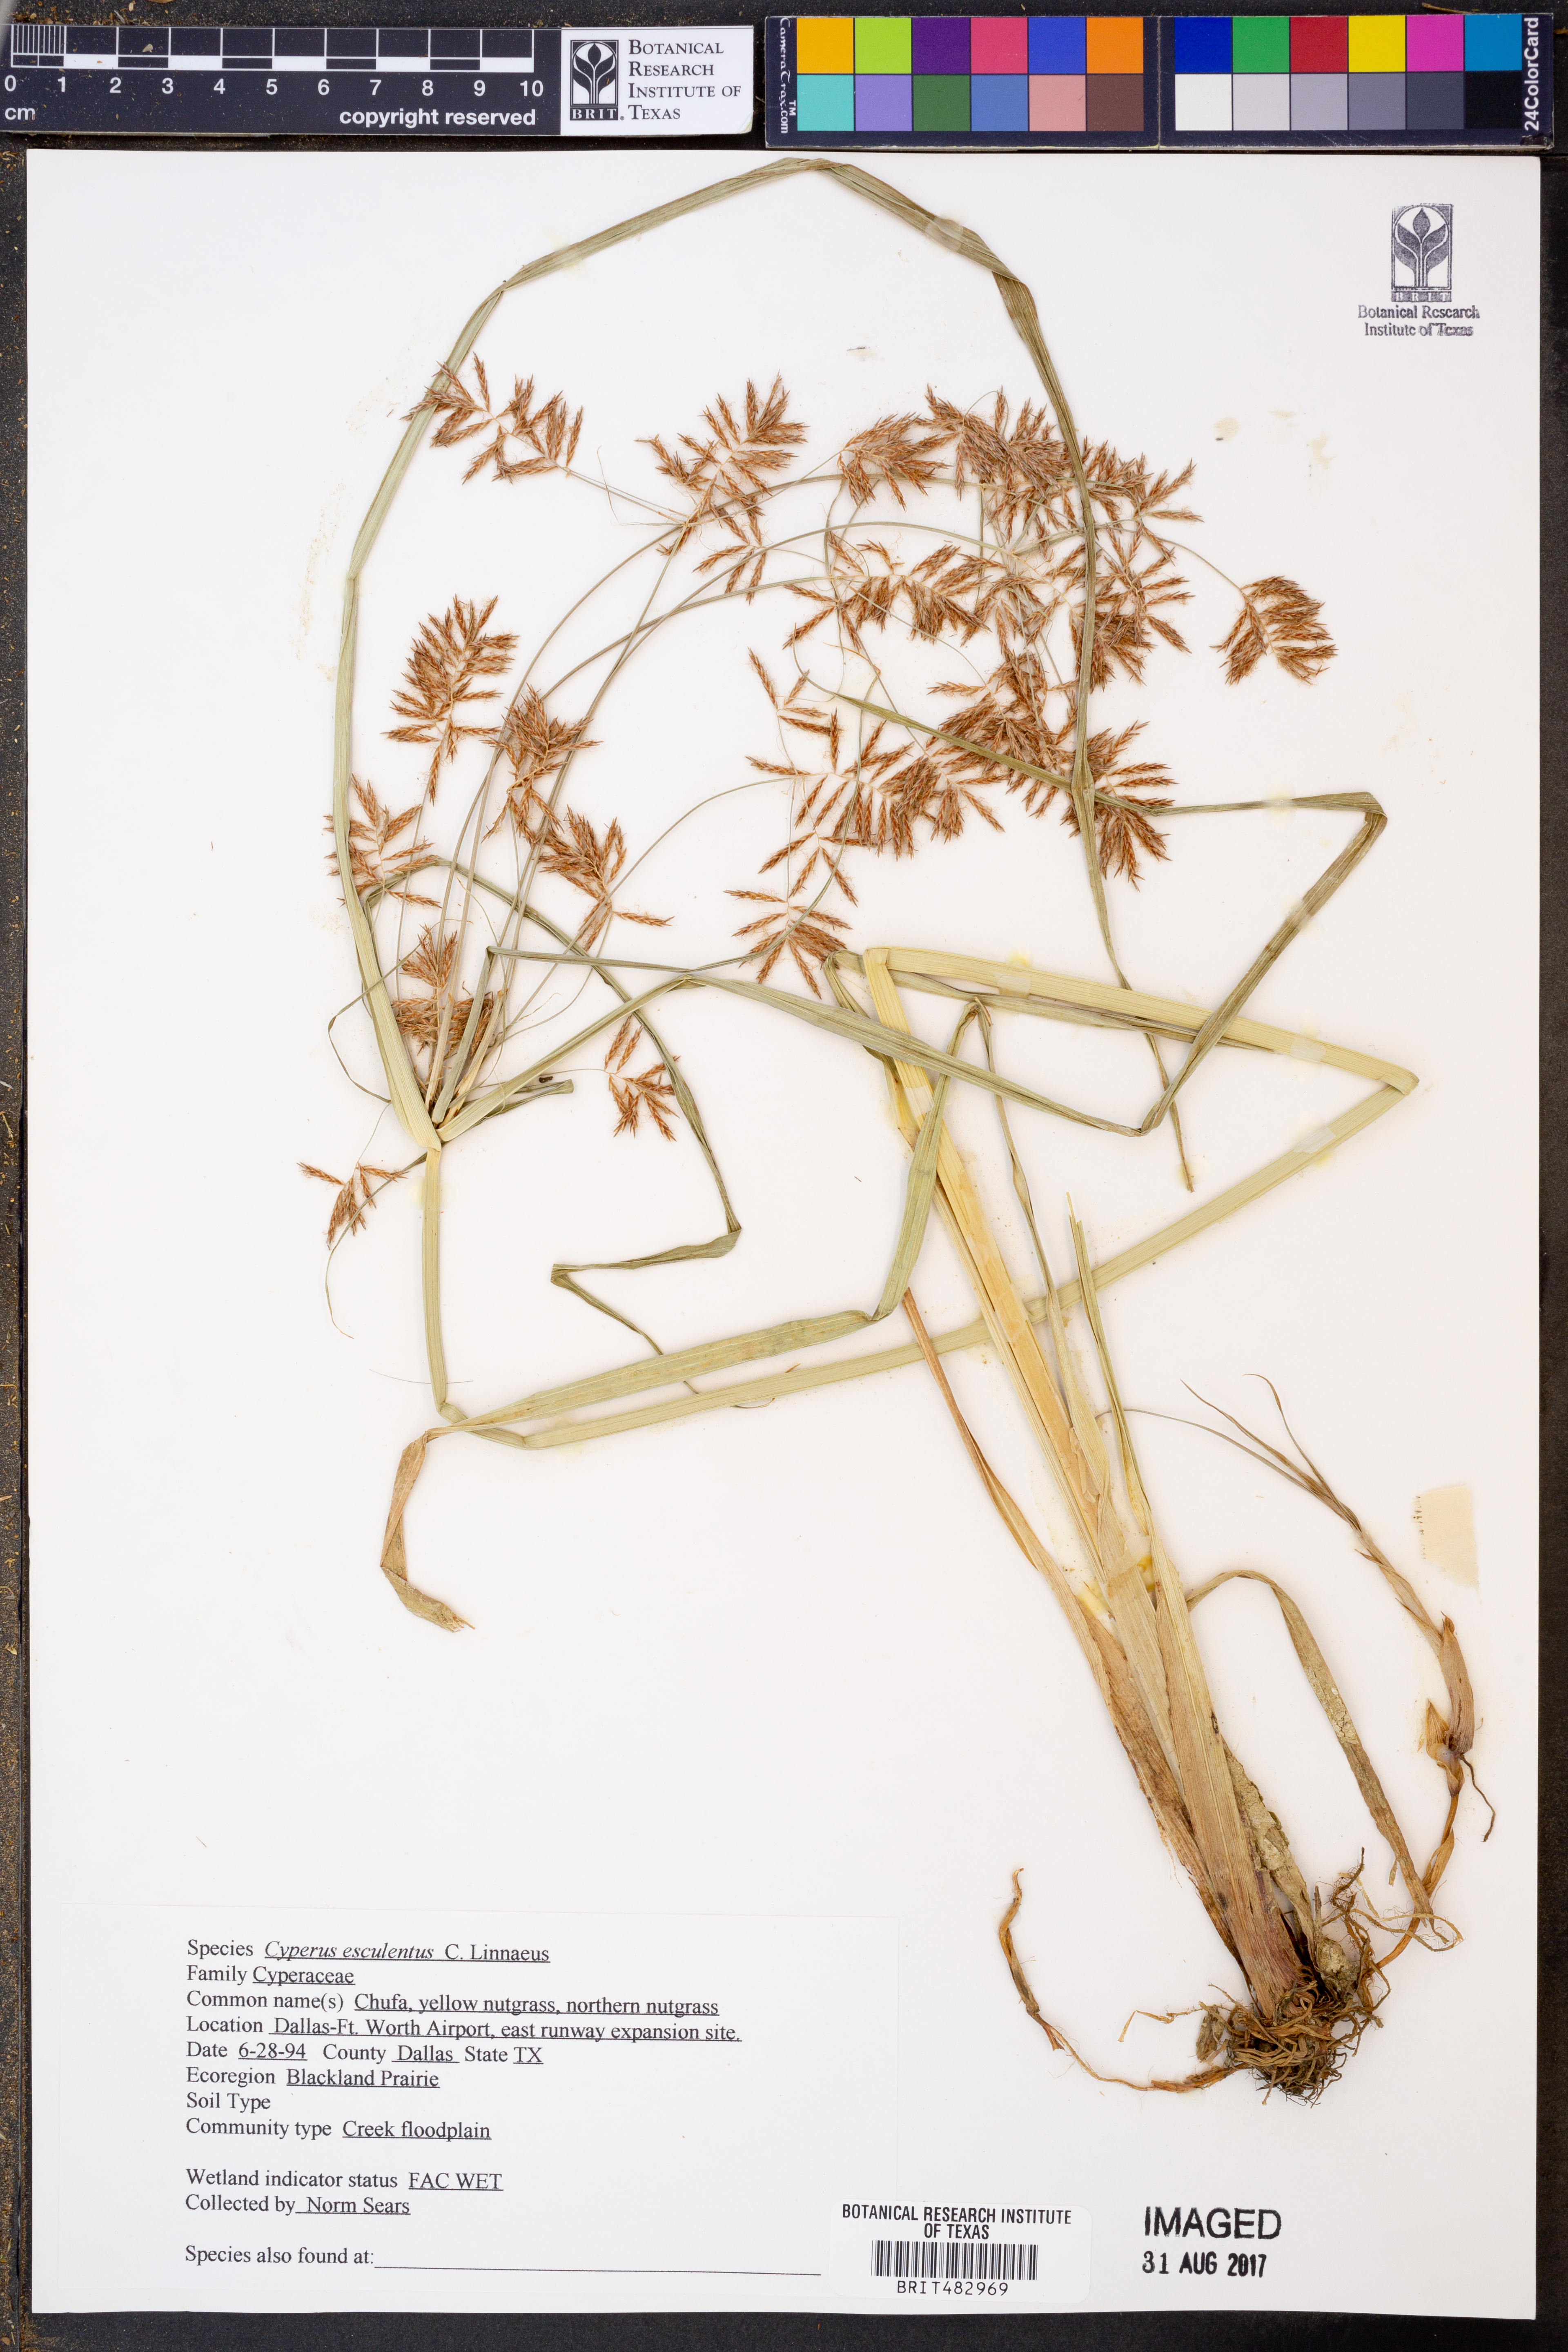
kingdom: Plantae
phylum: Tracheophyta
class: Liliopsida
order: Poales
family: Cyperaceae
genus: Cyperus
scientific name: Cyperus esculentus
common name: Yellow nutsedge
